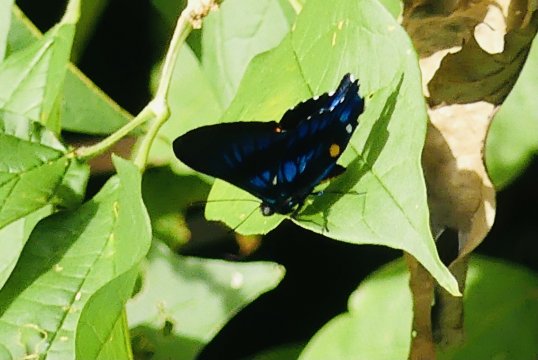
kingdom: Animalia
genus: Ancyluris
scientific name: Ancyluris inca
